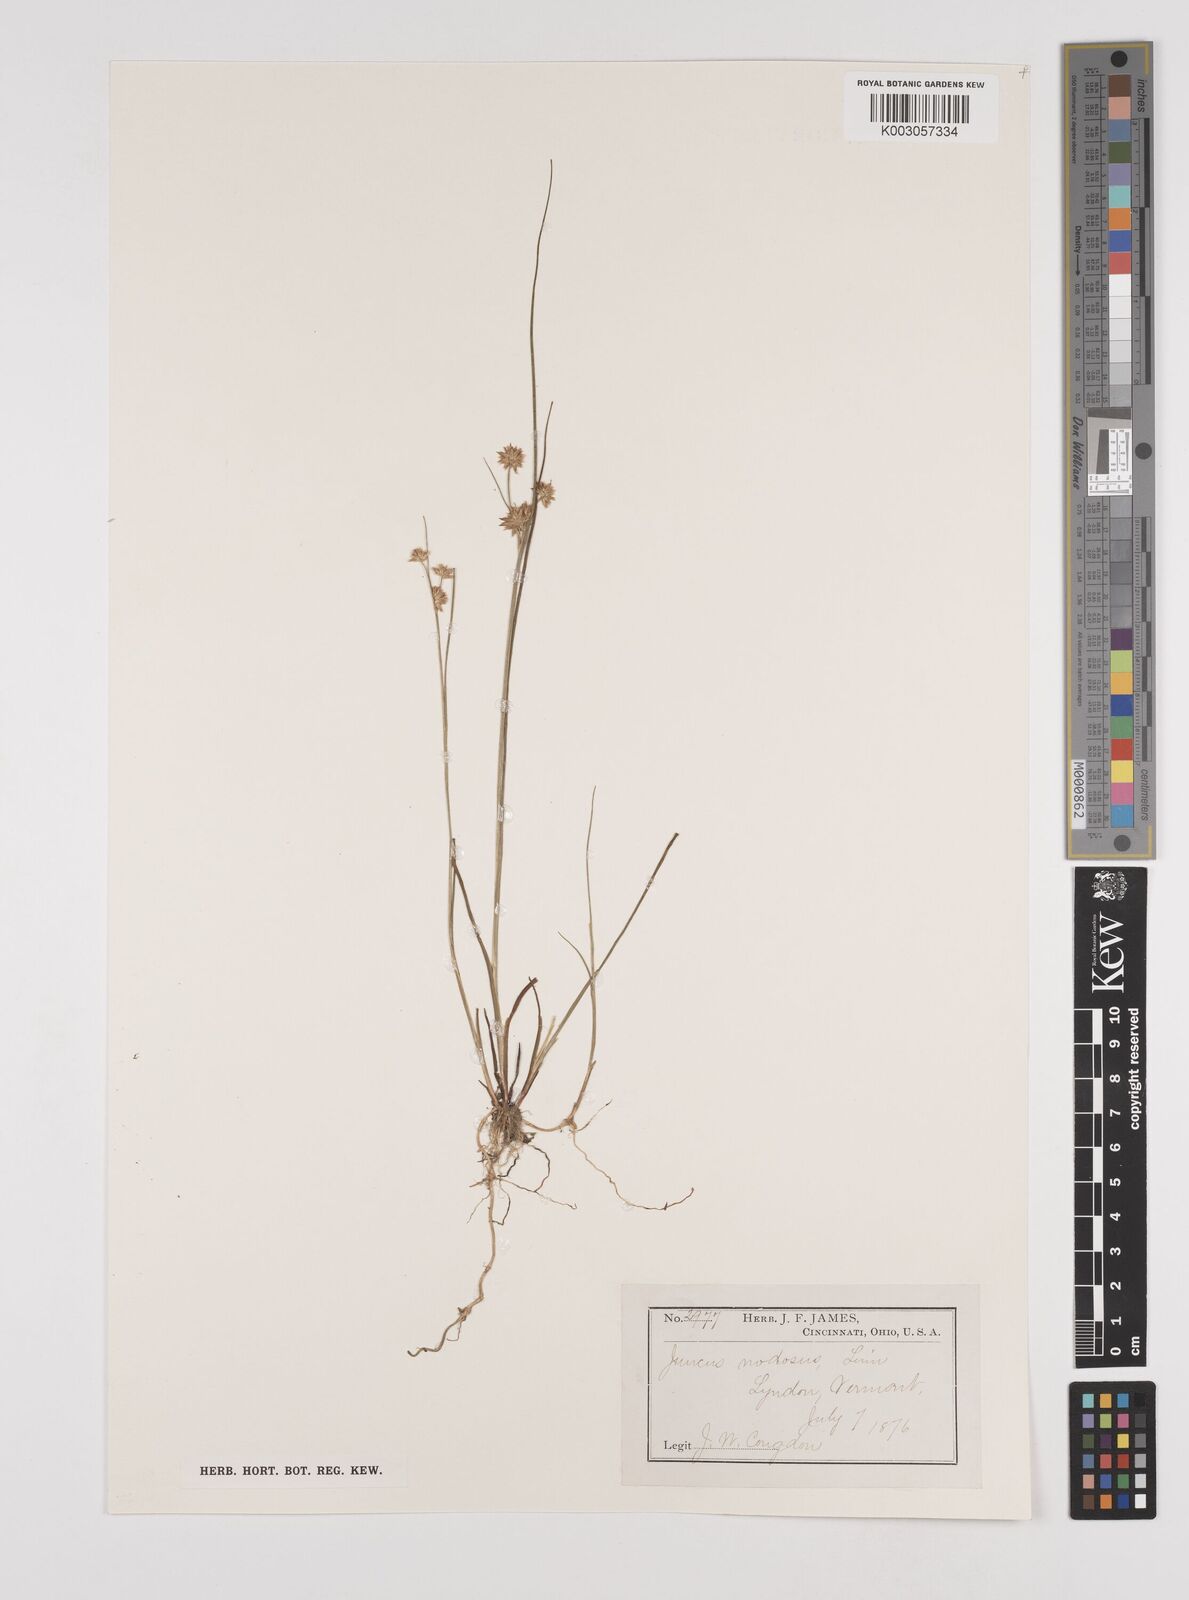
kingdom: Plantae
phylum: Tracheophyta
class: Liliopsida
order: Poales
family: Juncaceae
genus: Juncus
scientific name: Juncus nodosus
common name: Knotted rush
